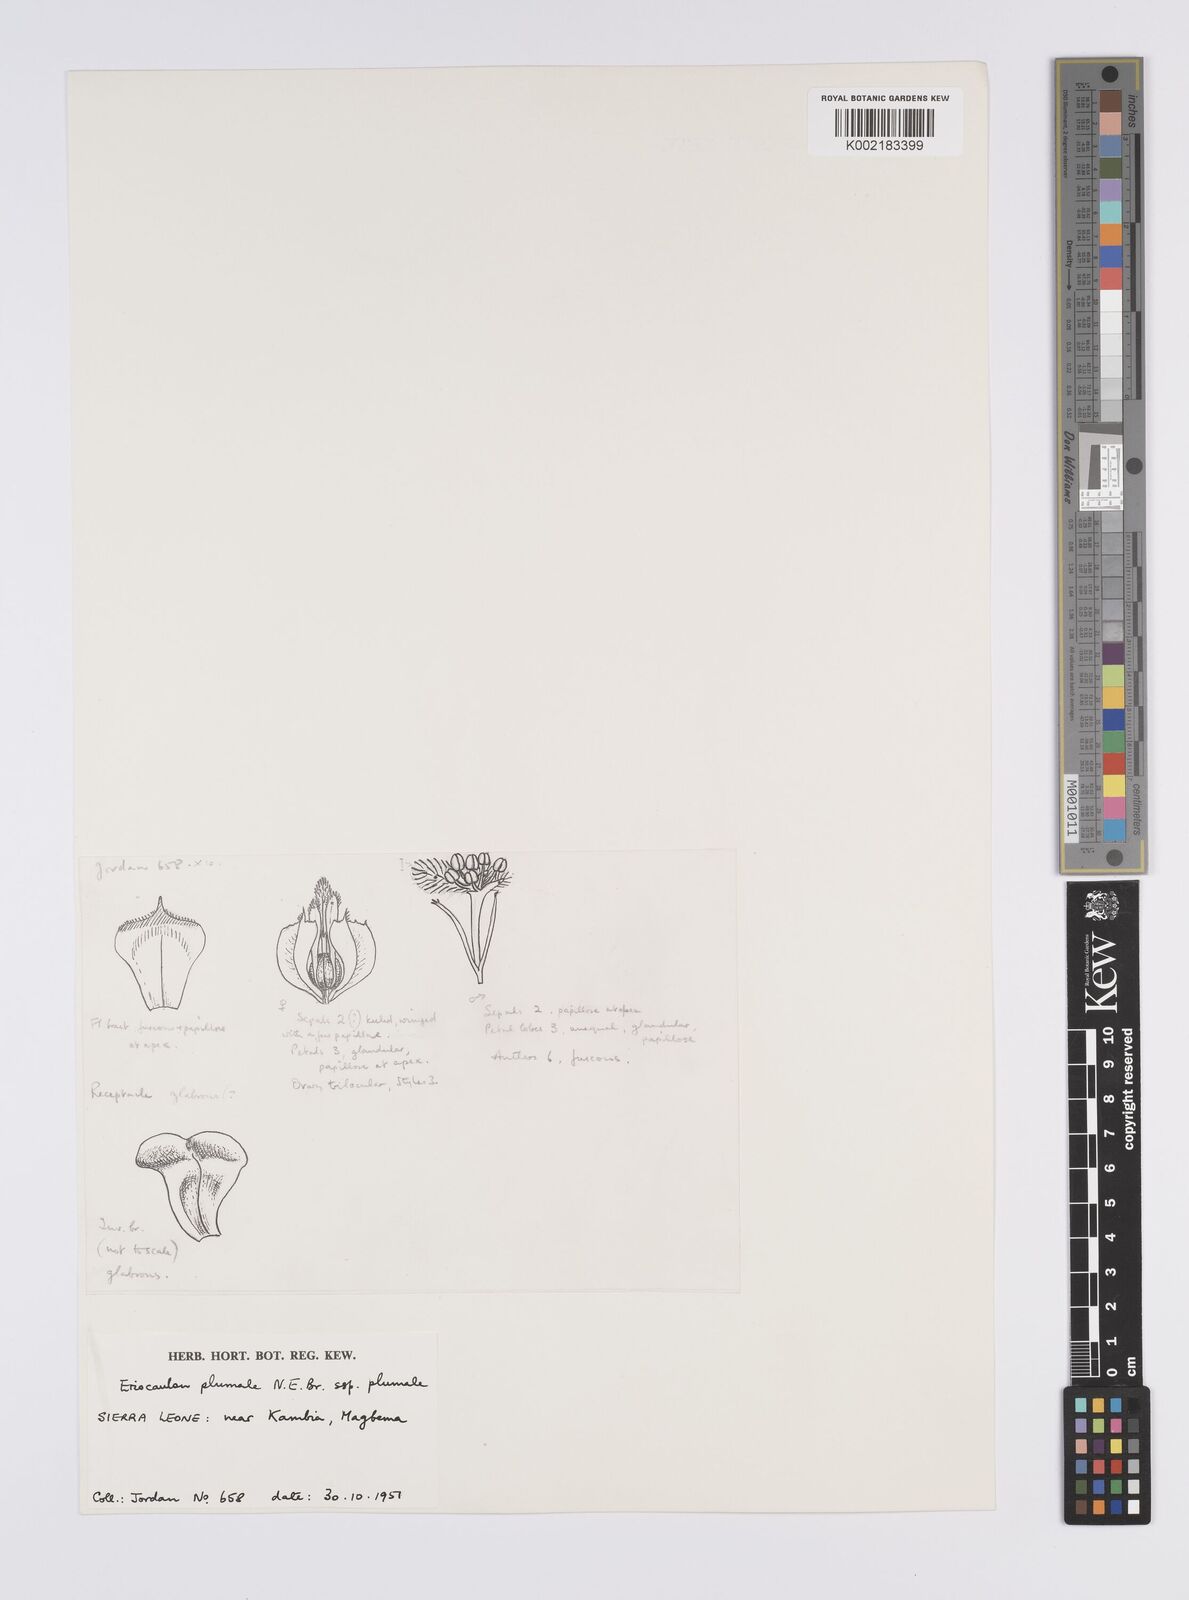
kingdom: Plantae
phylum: Tracheophyta
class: Liliopsida
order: Poales
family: Eriocaulaceae
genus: Eriocaulon
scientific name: Eriocaulon plumale
